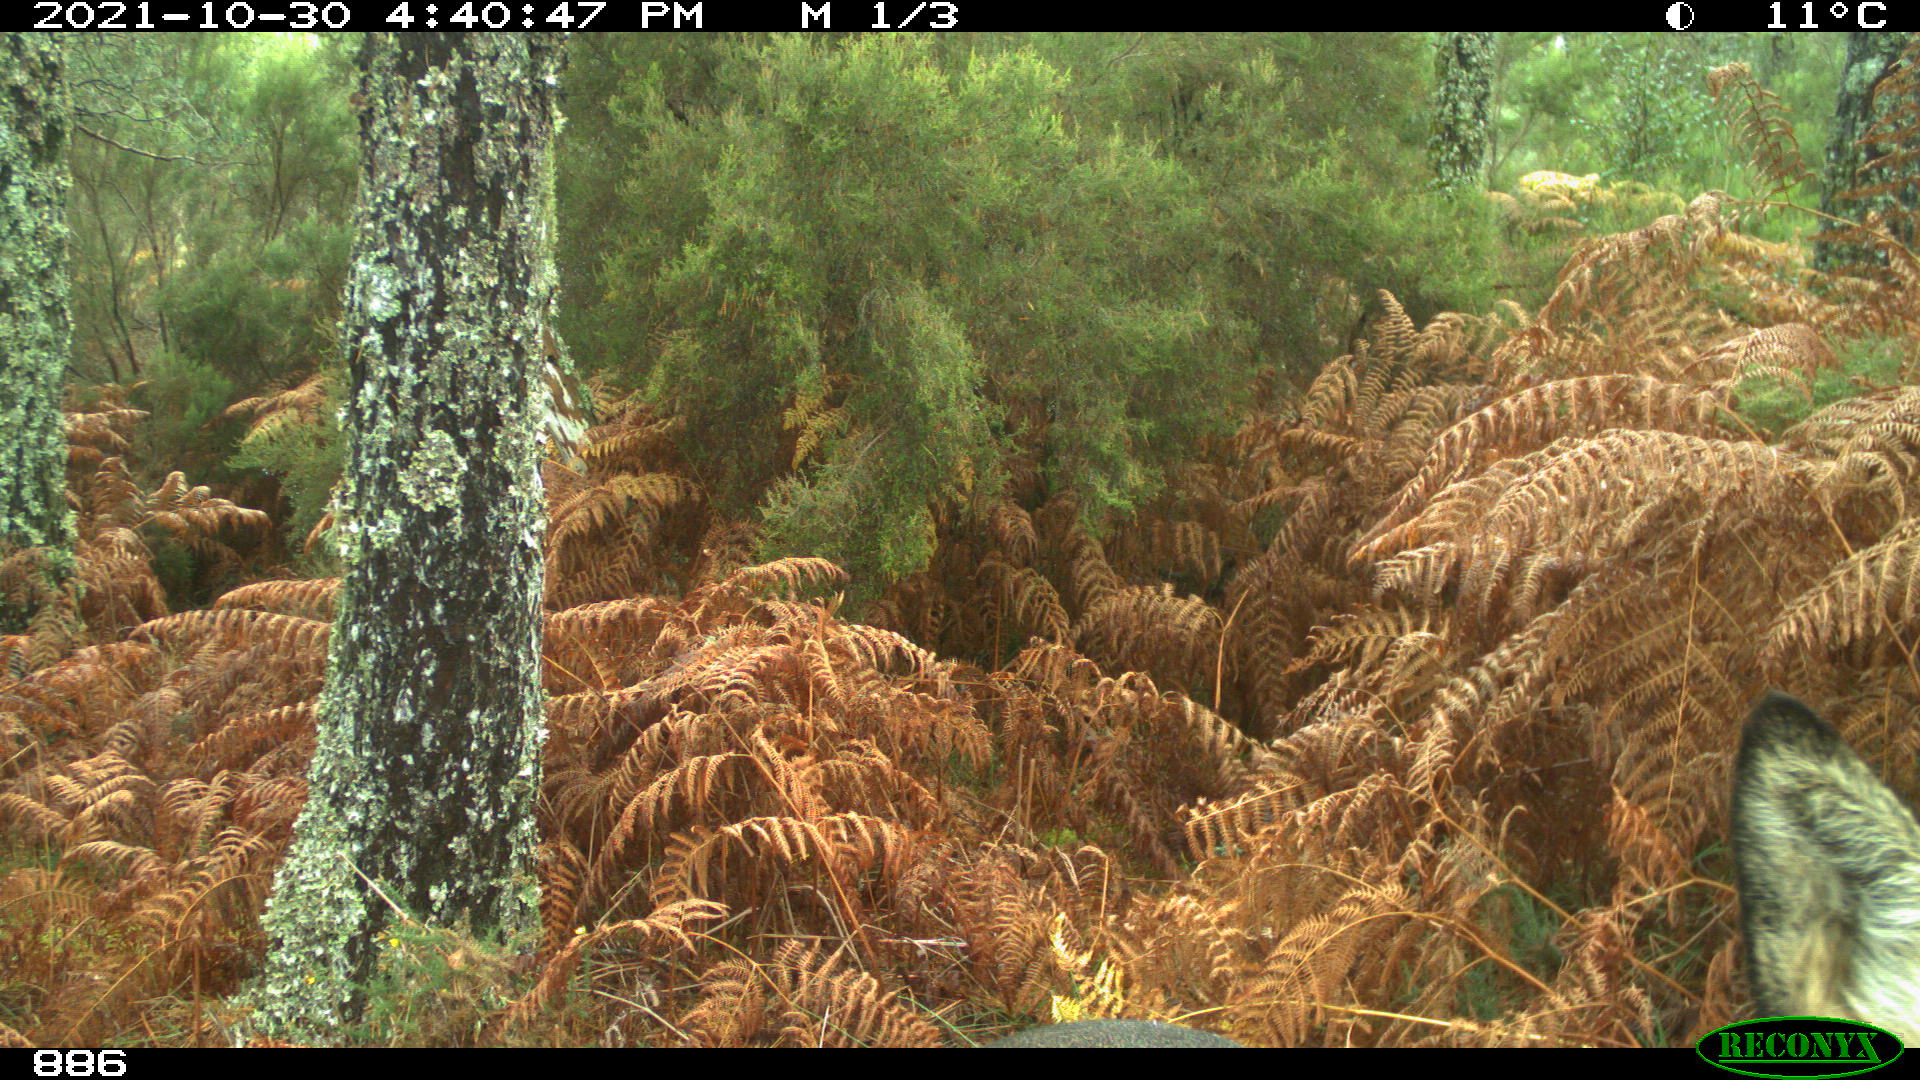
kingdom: Animalia
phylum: Chordata
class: Mammalia
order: Perissodactyla
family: Equidae
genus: Equus
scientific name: Equus caballus
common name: Horse
